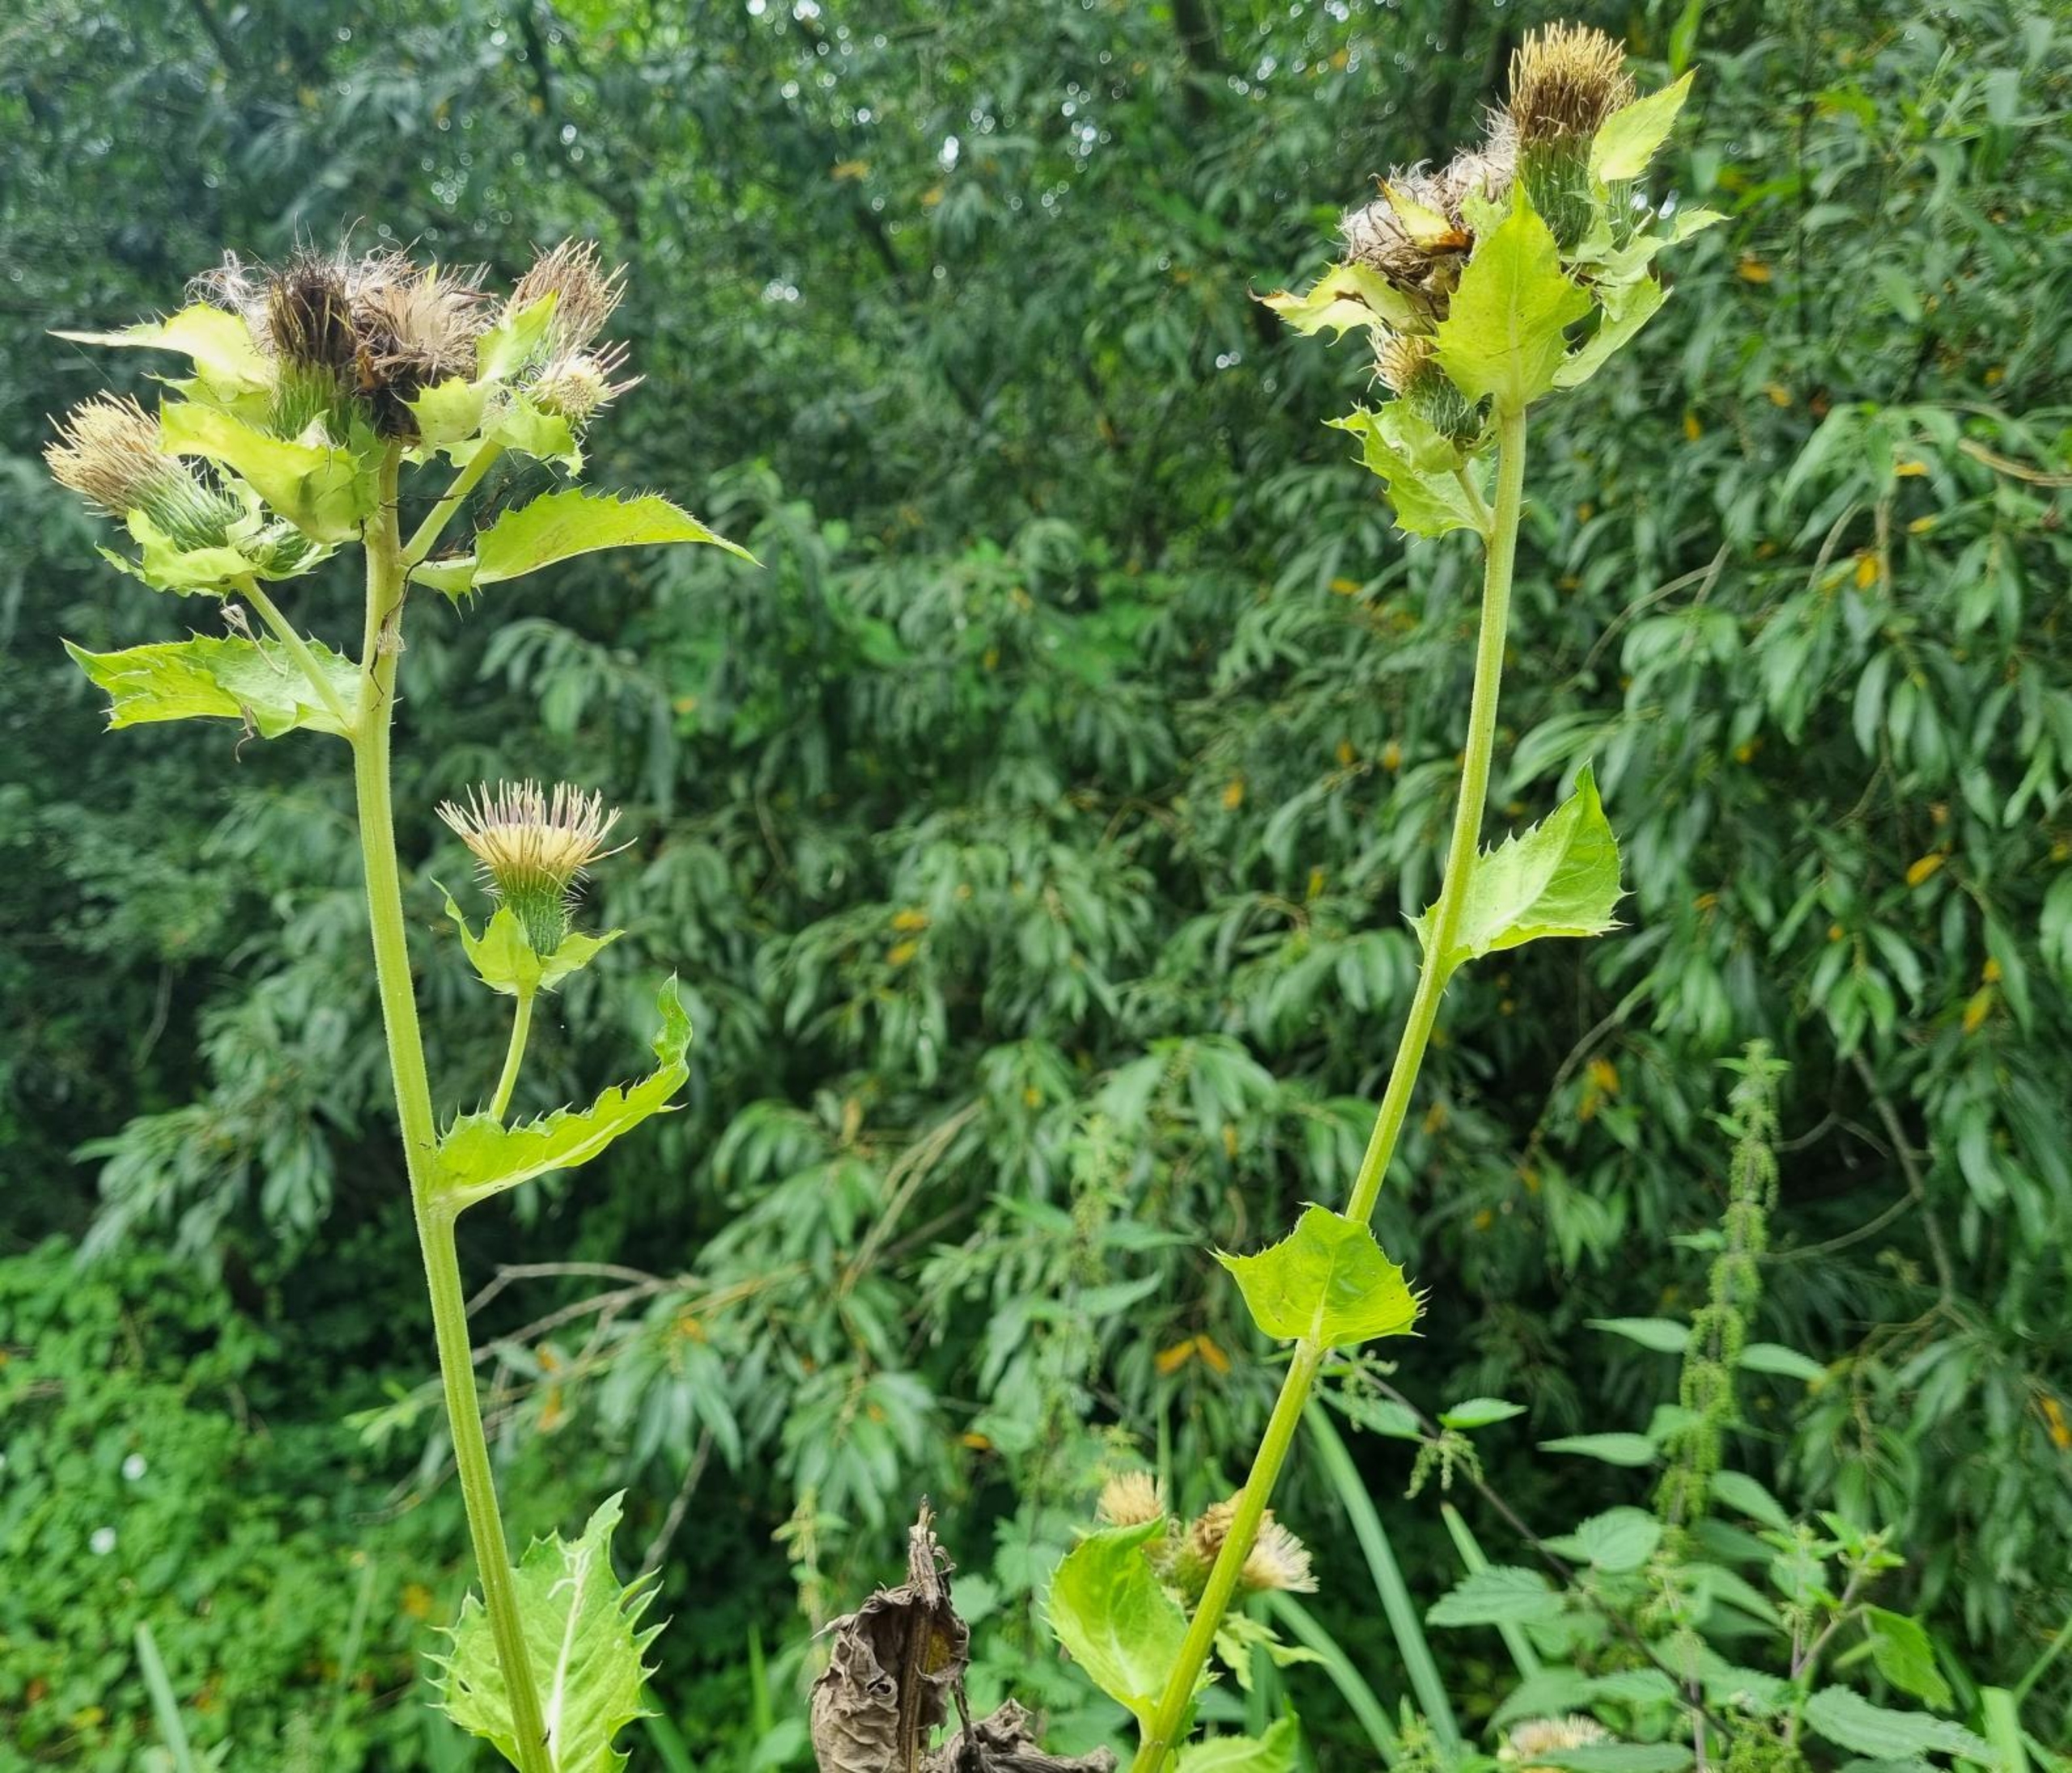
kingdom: Plantae
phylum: Tracheophyta
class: Magnoliopsida
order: Asterales
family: Asteraceae
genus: Cirsium
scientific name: Cirsium oleraceum
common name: Kål-tidsel
